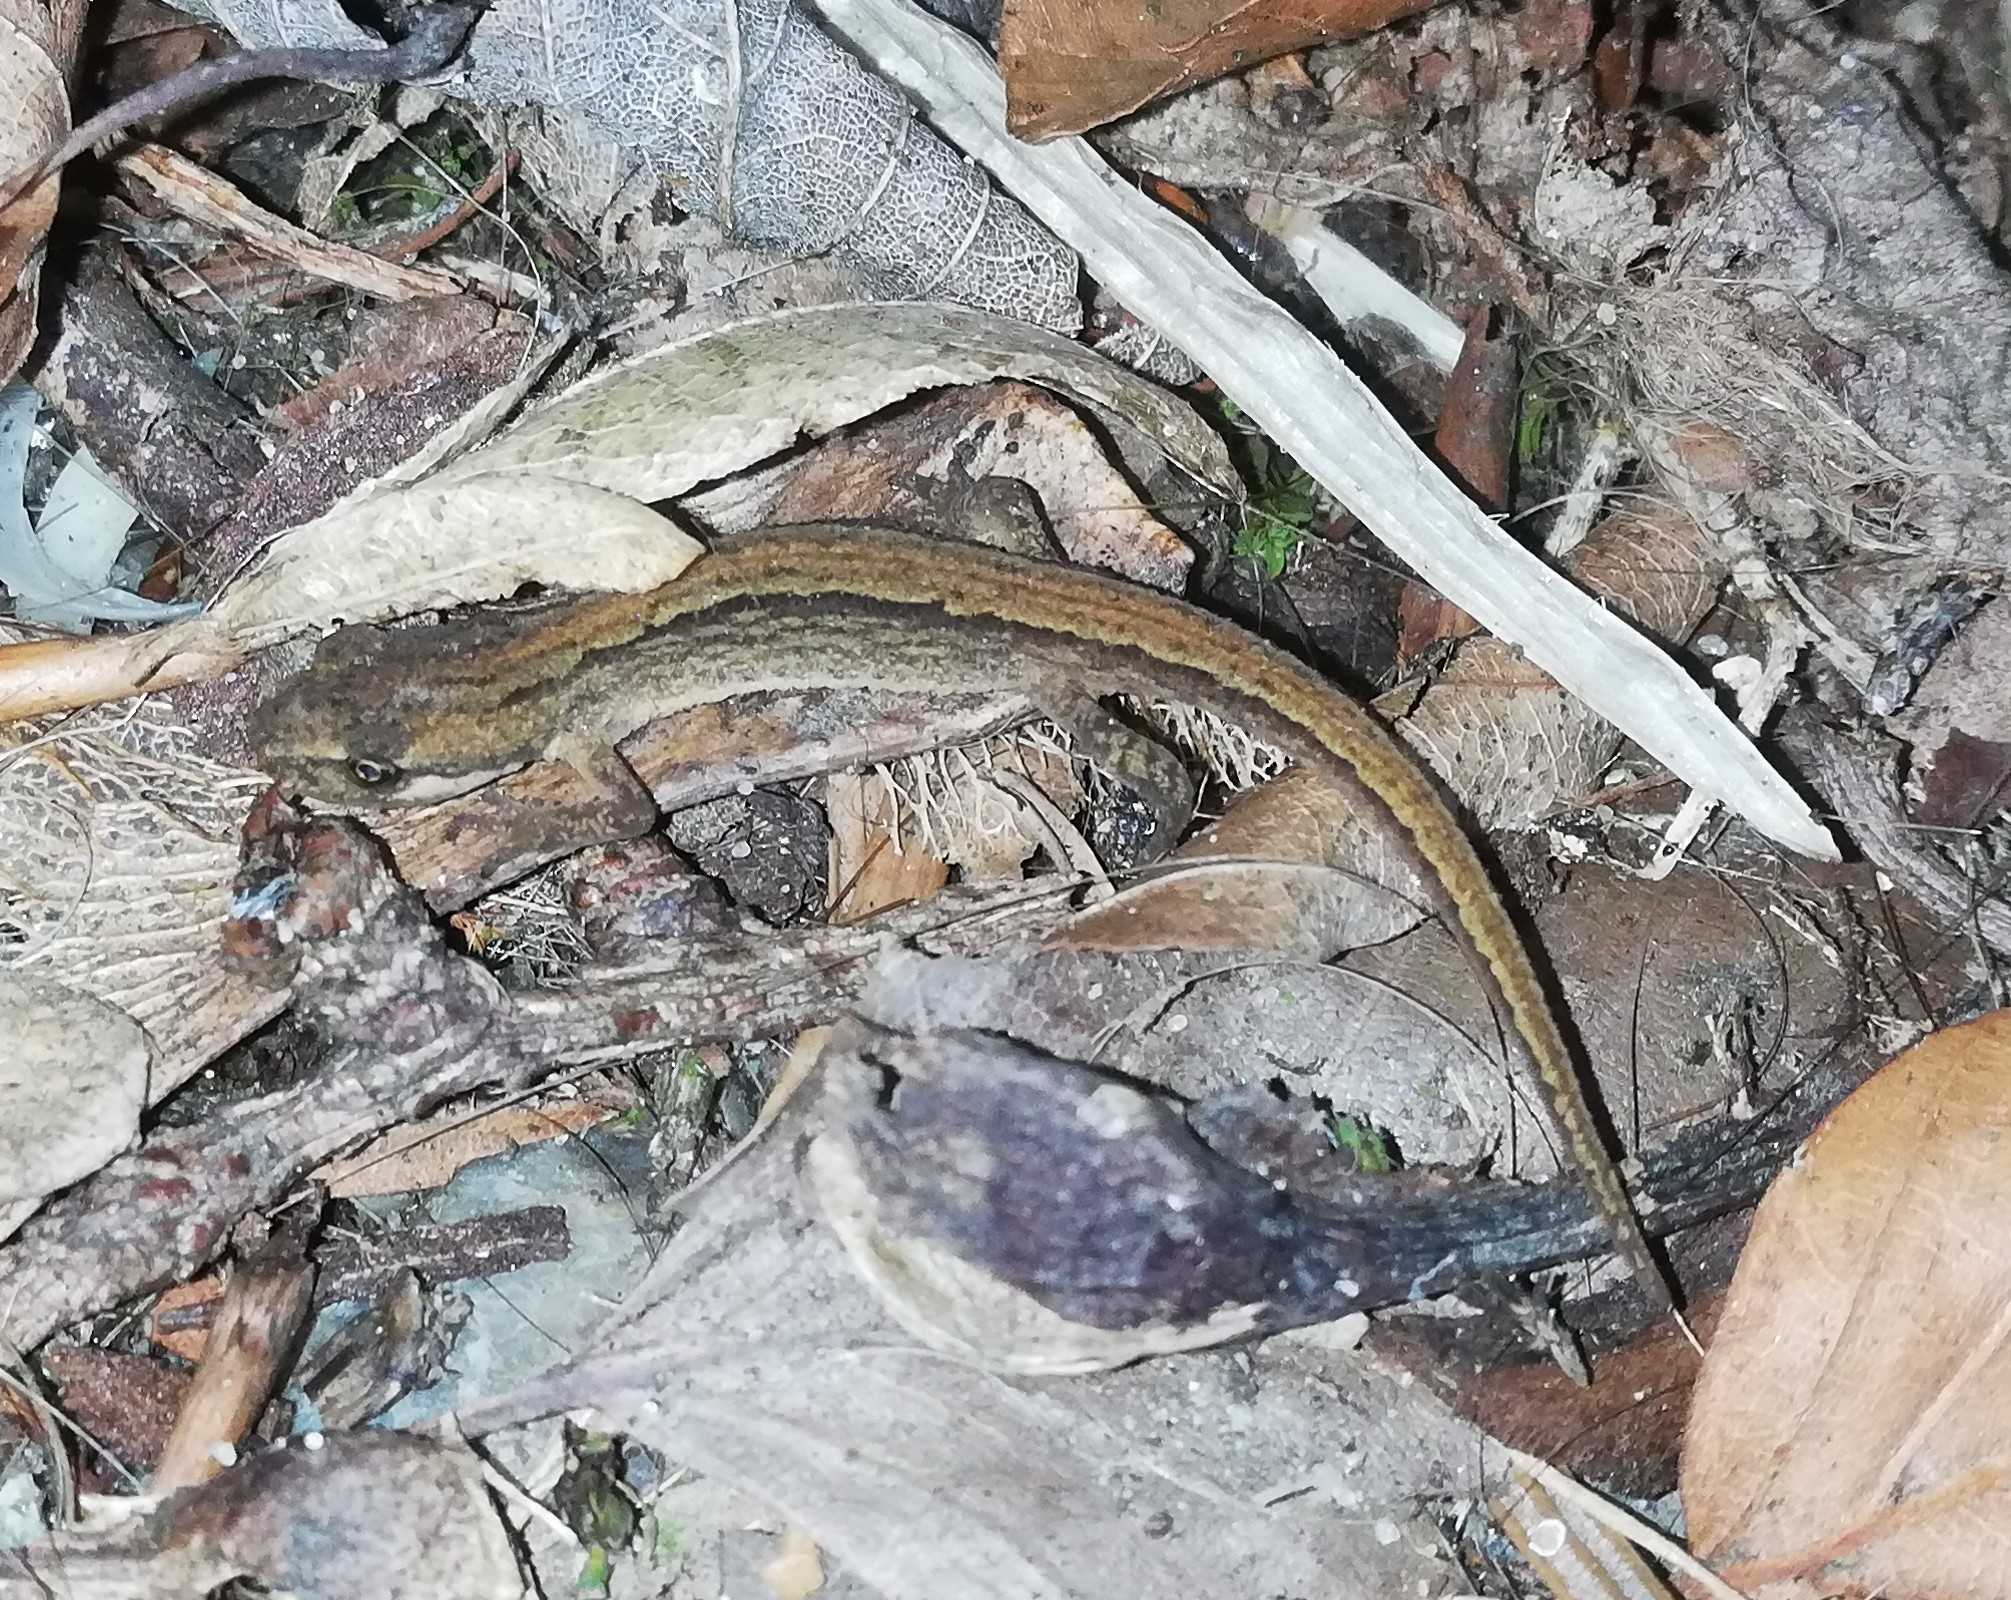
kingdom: Animalia
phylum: Chordata
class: Amphibia
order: Caudata
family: Salamandridae
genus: Lissotriton
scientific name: Lissotriton vulgaris
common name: Lille vandsalamander
